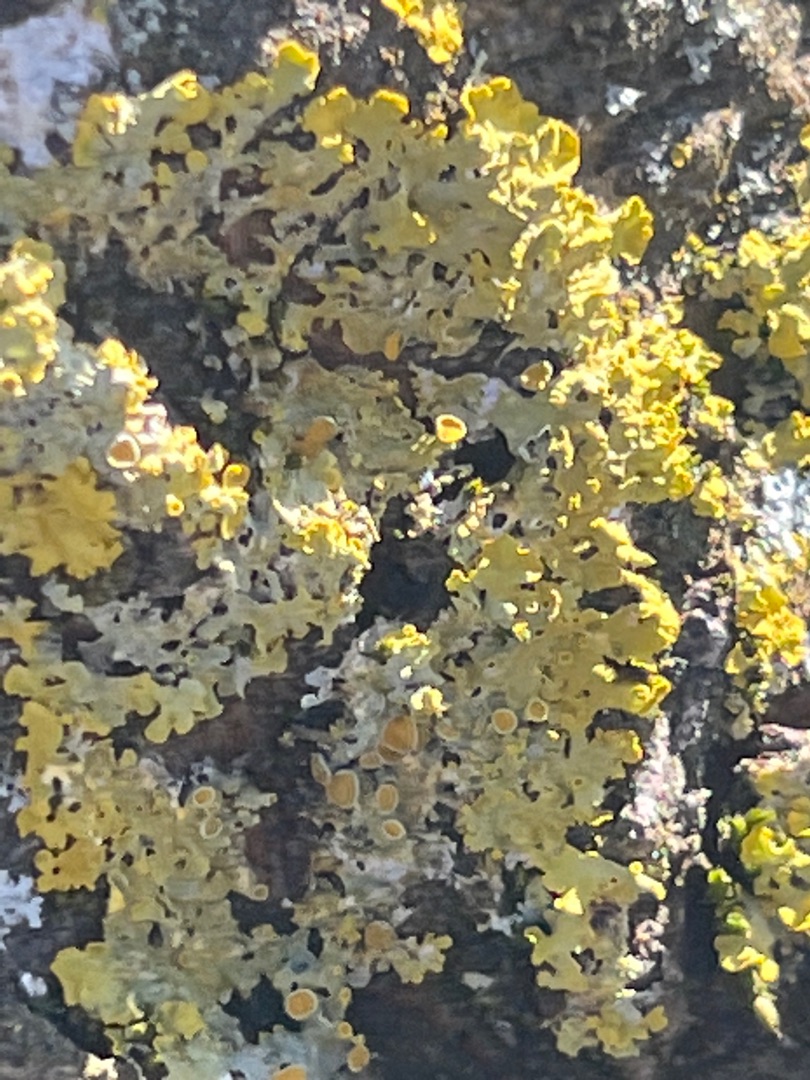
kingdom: Fungi
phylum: Ascomycota
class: Lecanoromycetes
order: Teloschistales
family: Teloschistaceae
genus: Xanthoria
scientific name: Xanthoria parietina
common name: Almindelig væggelav
